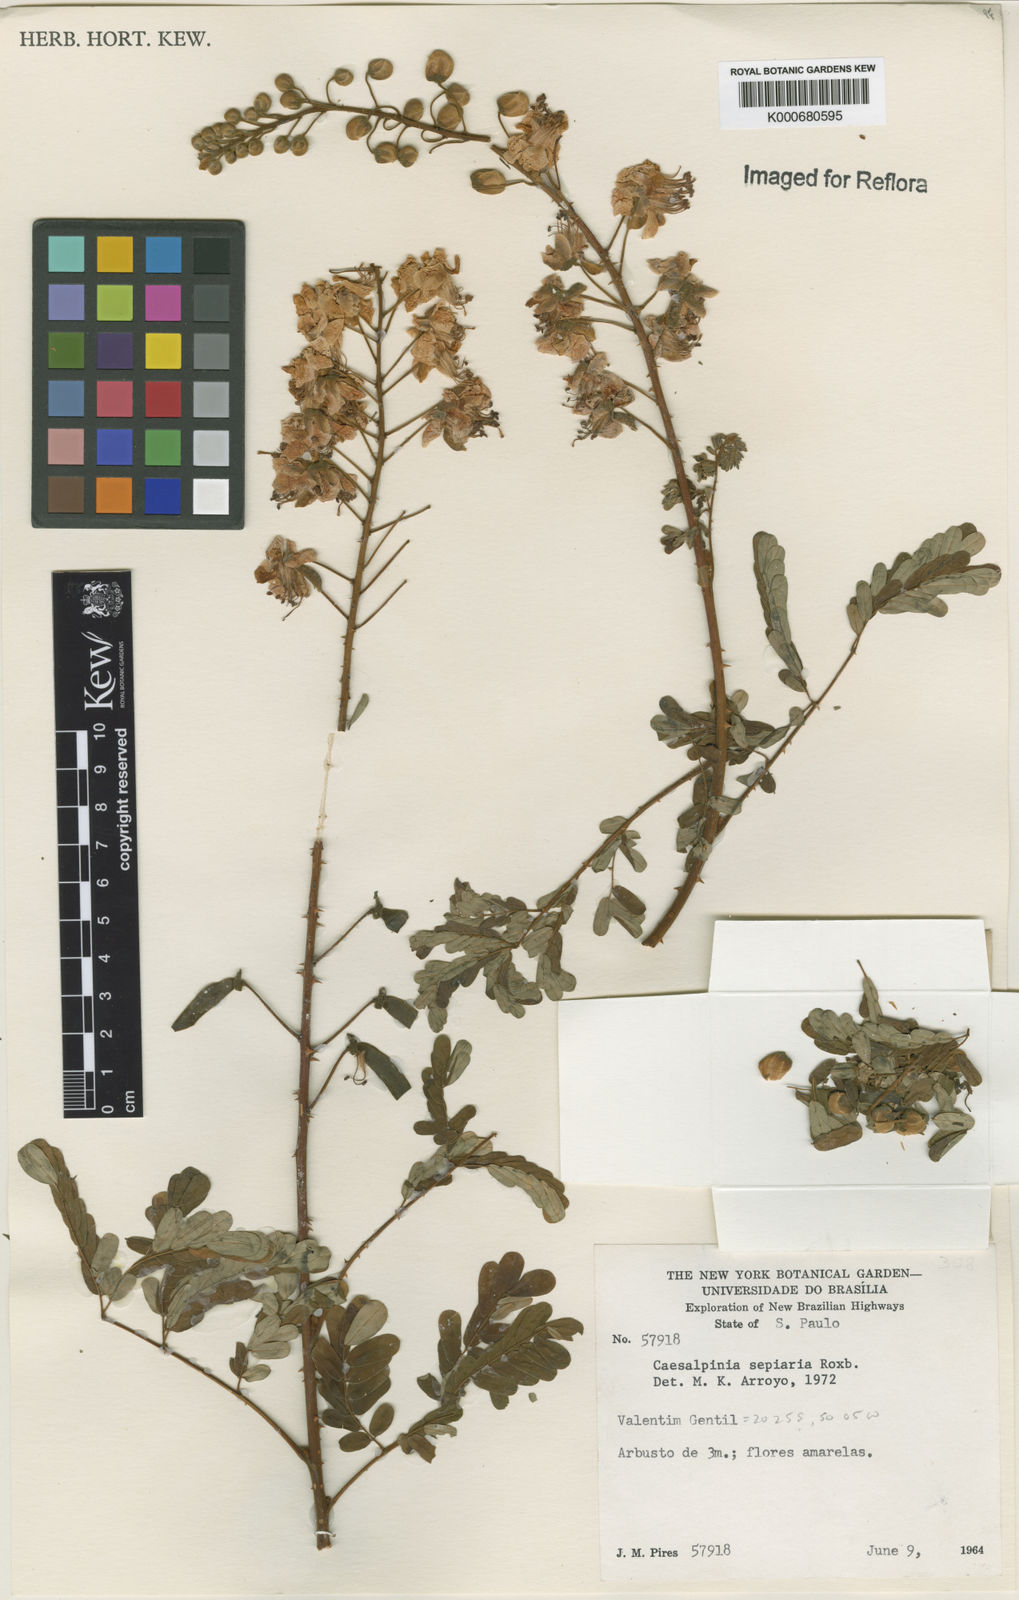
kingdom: Plantae
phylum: Tracheophyta
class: Magnoliopsida
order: Fabales
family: Fabaceae
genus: Biancaea
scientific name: Biancaea decapetala
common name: Cat's claw
